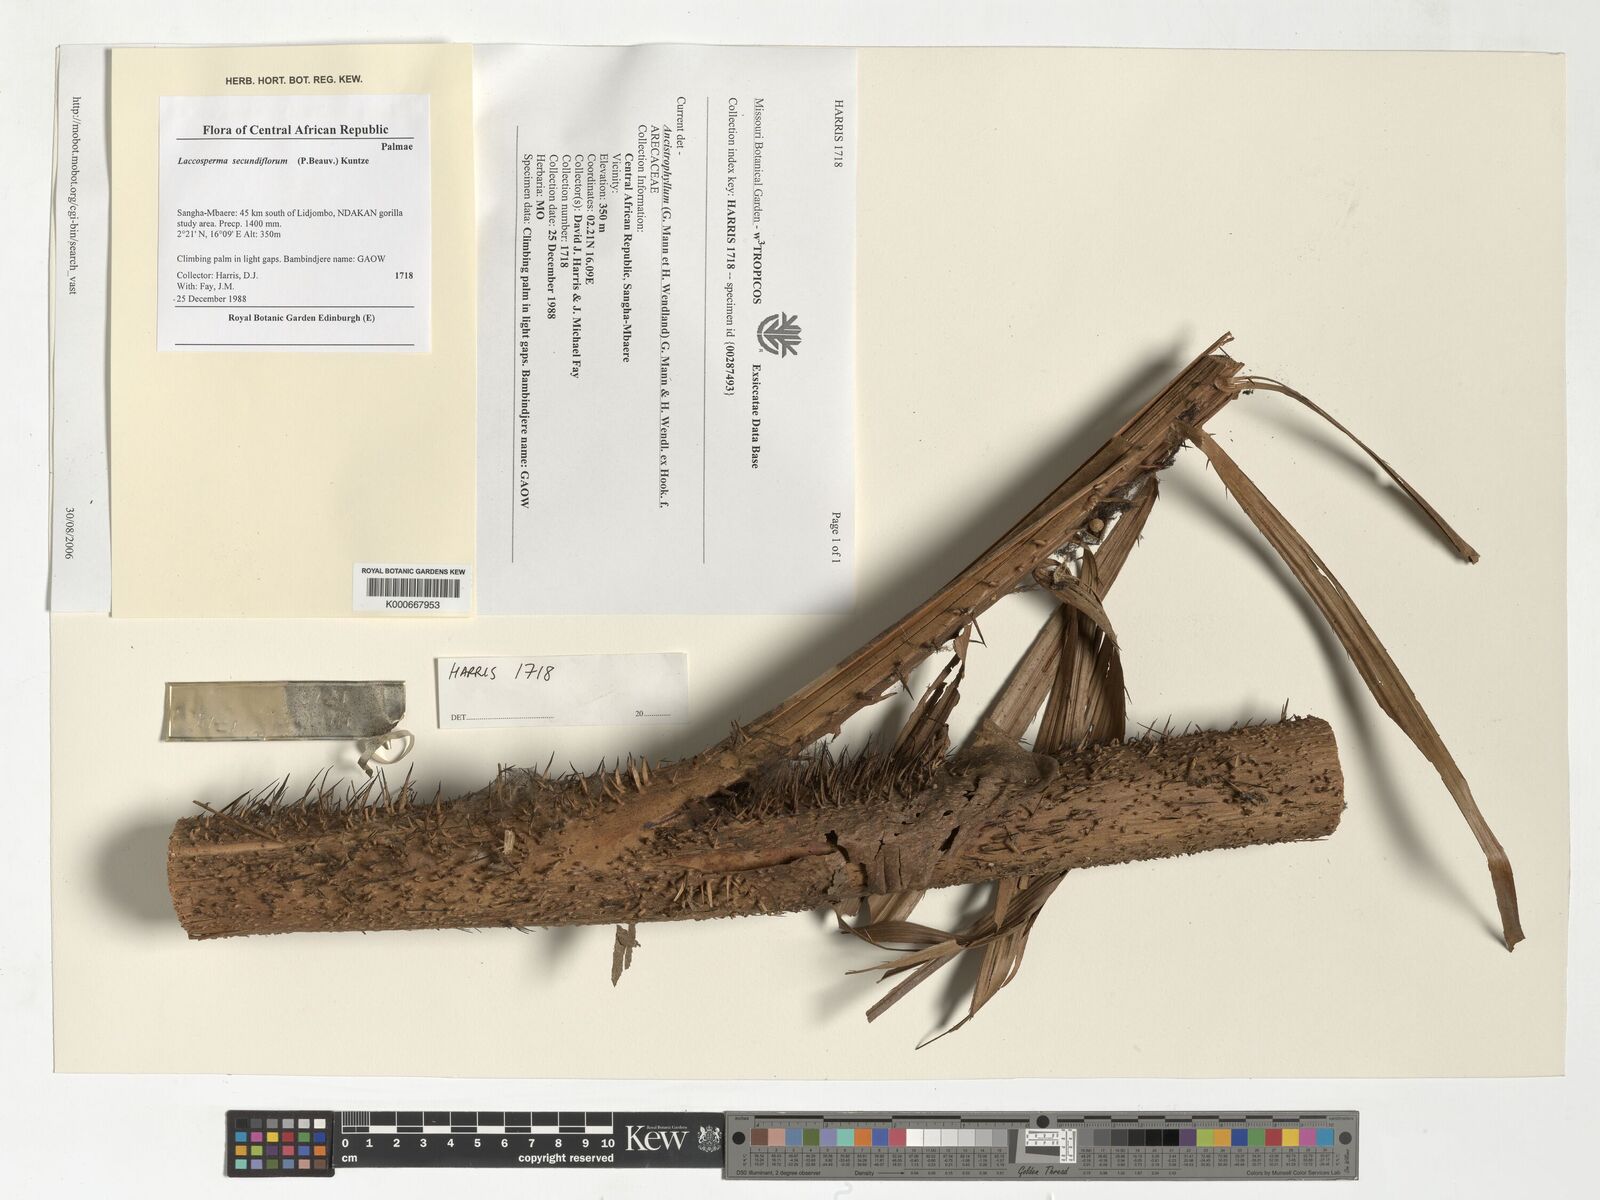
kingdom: Plantae
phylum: Tracheophyta
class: Liliopsida
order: Arecales
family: Arecaceae
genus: Laccosperma
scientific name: Laccosperma secundiflorum
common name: Rattan
